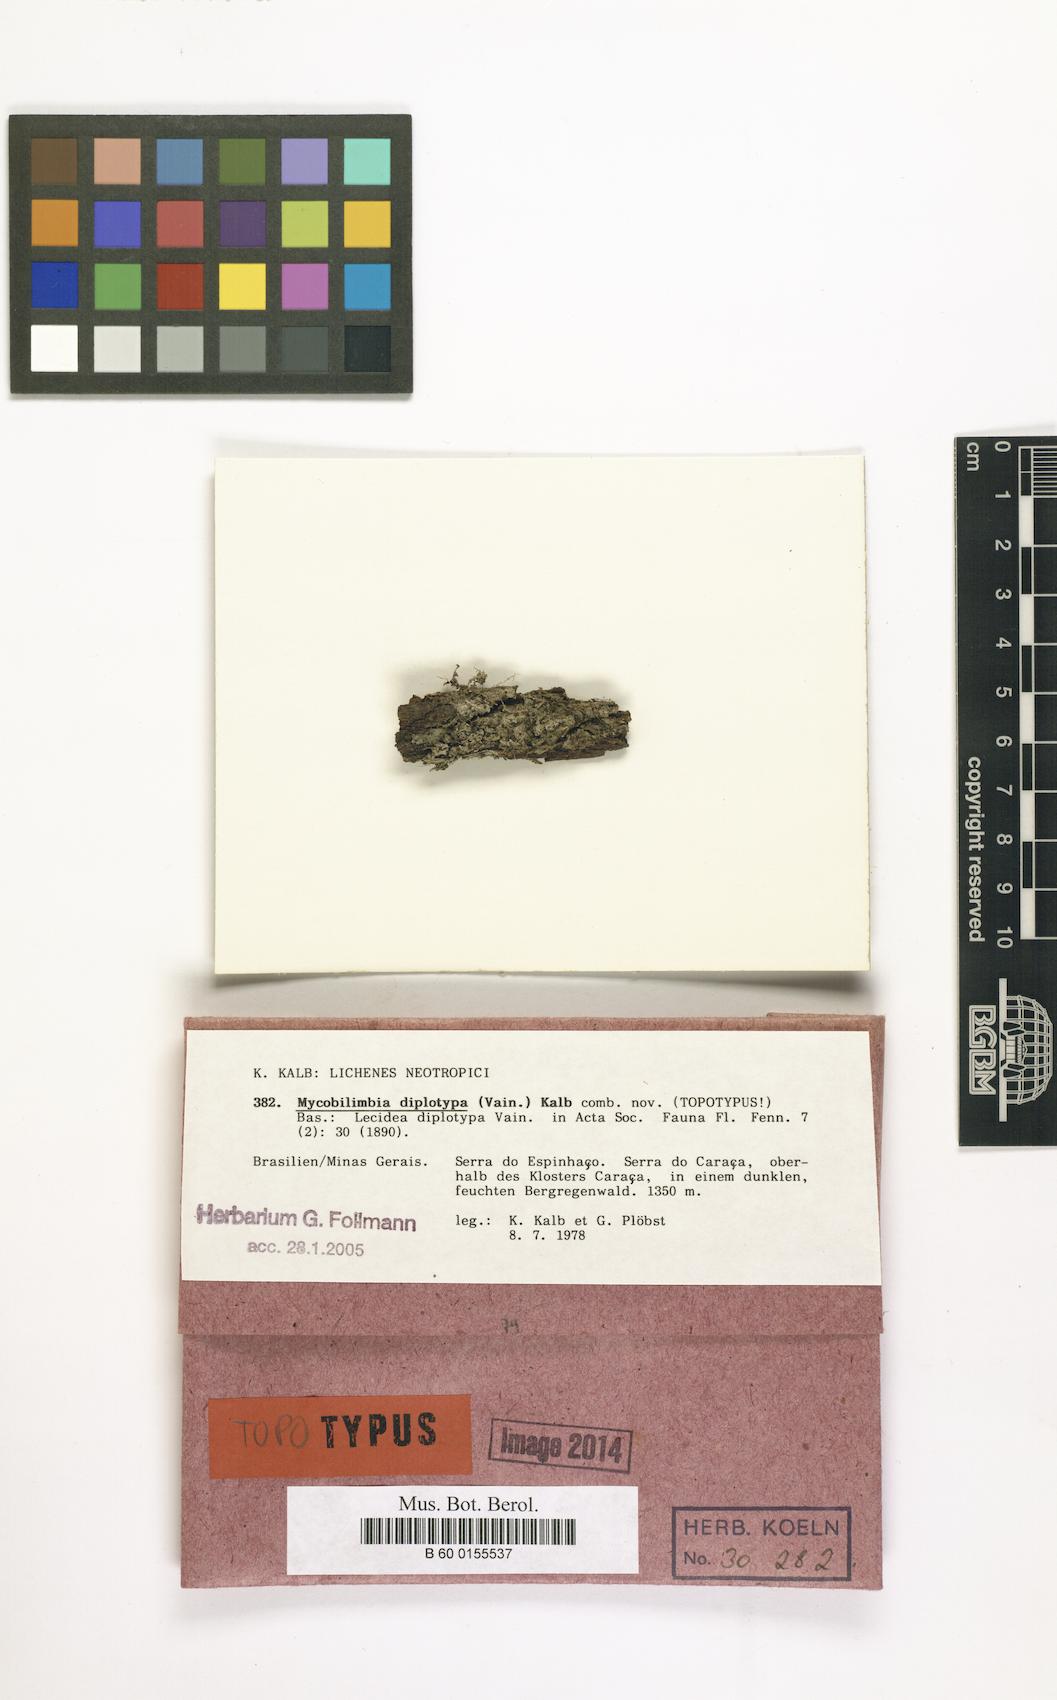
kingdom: Fungi
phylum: Ascomycota
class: Lecanoromycetes
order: Lecideales
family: Porpidiaceae
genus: Mycobilimbia
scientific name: Mycobilimbia diplotypa
